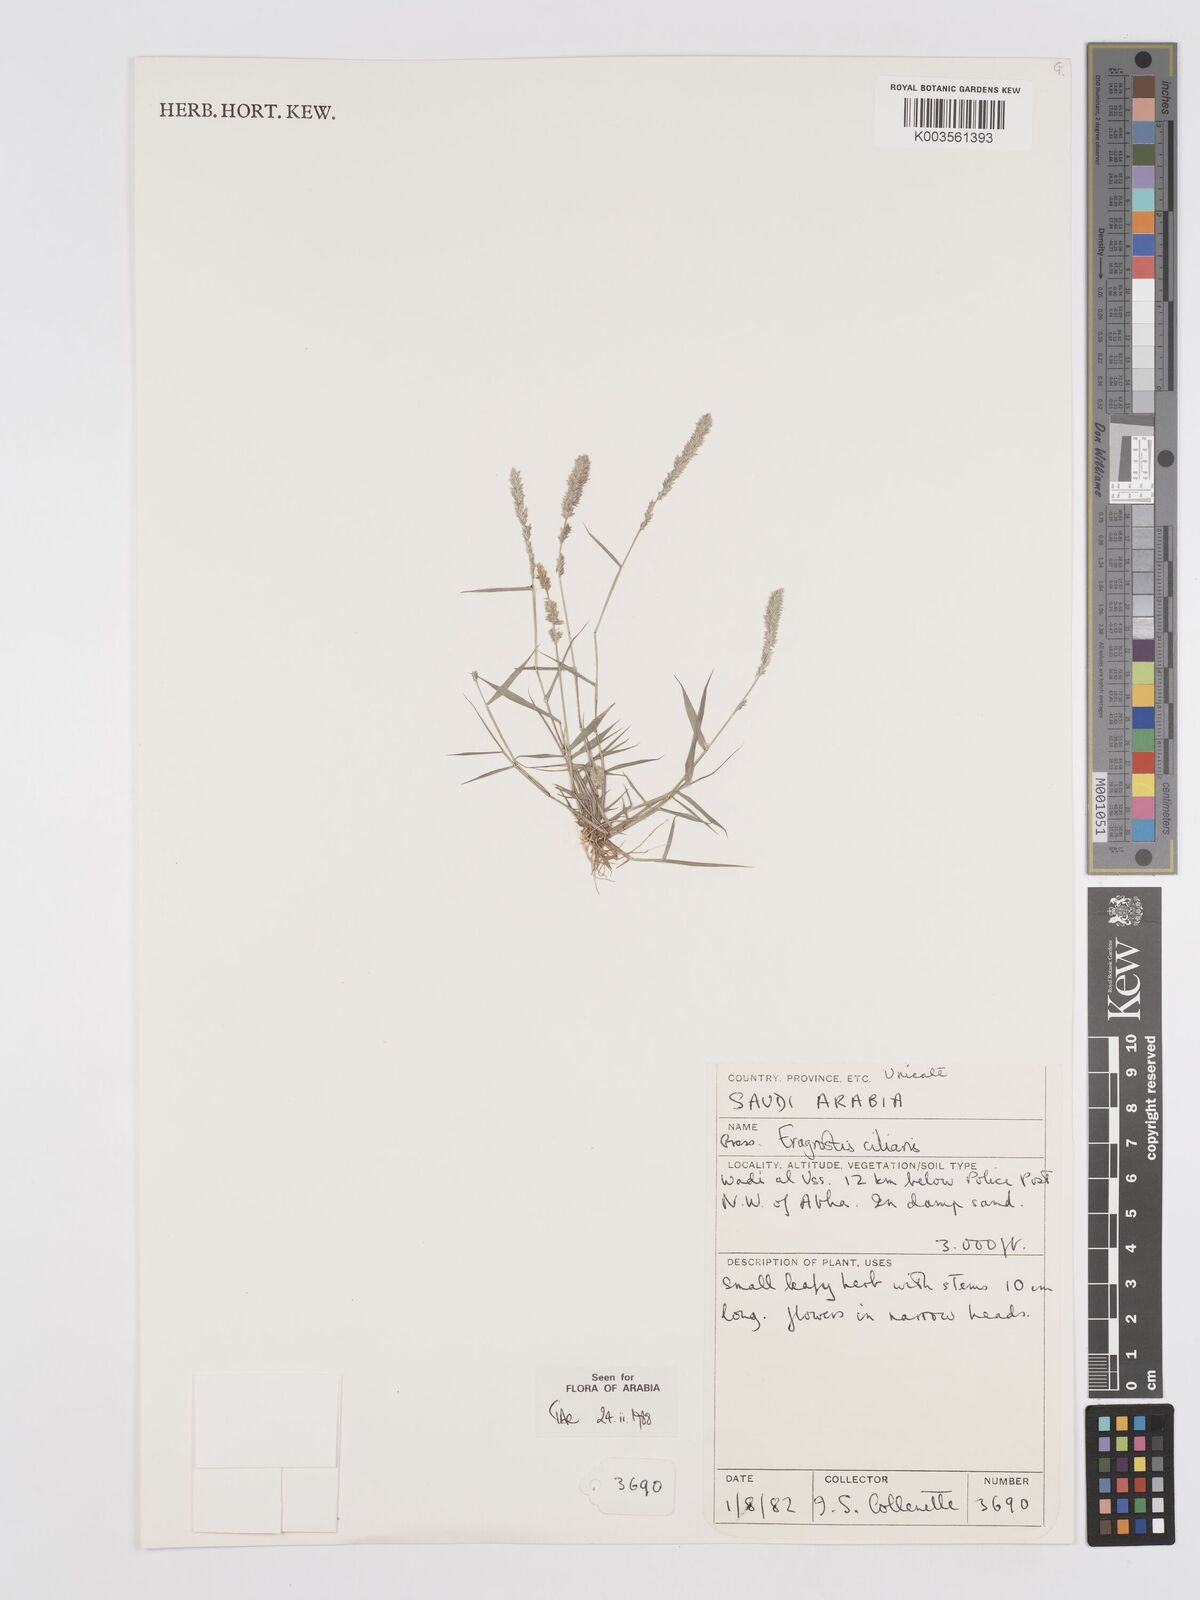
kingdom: Plantae
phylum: Tracheophyta
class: Liliopsida
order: Poales
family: Poaceae
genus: Eragrostis
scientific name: Eragrostis ciliaris
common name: Gophertail lovegrass
